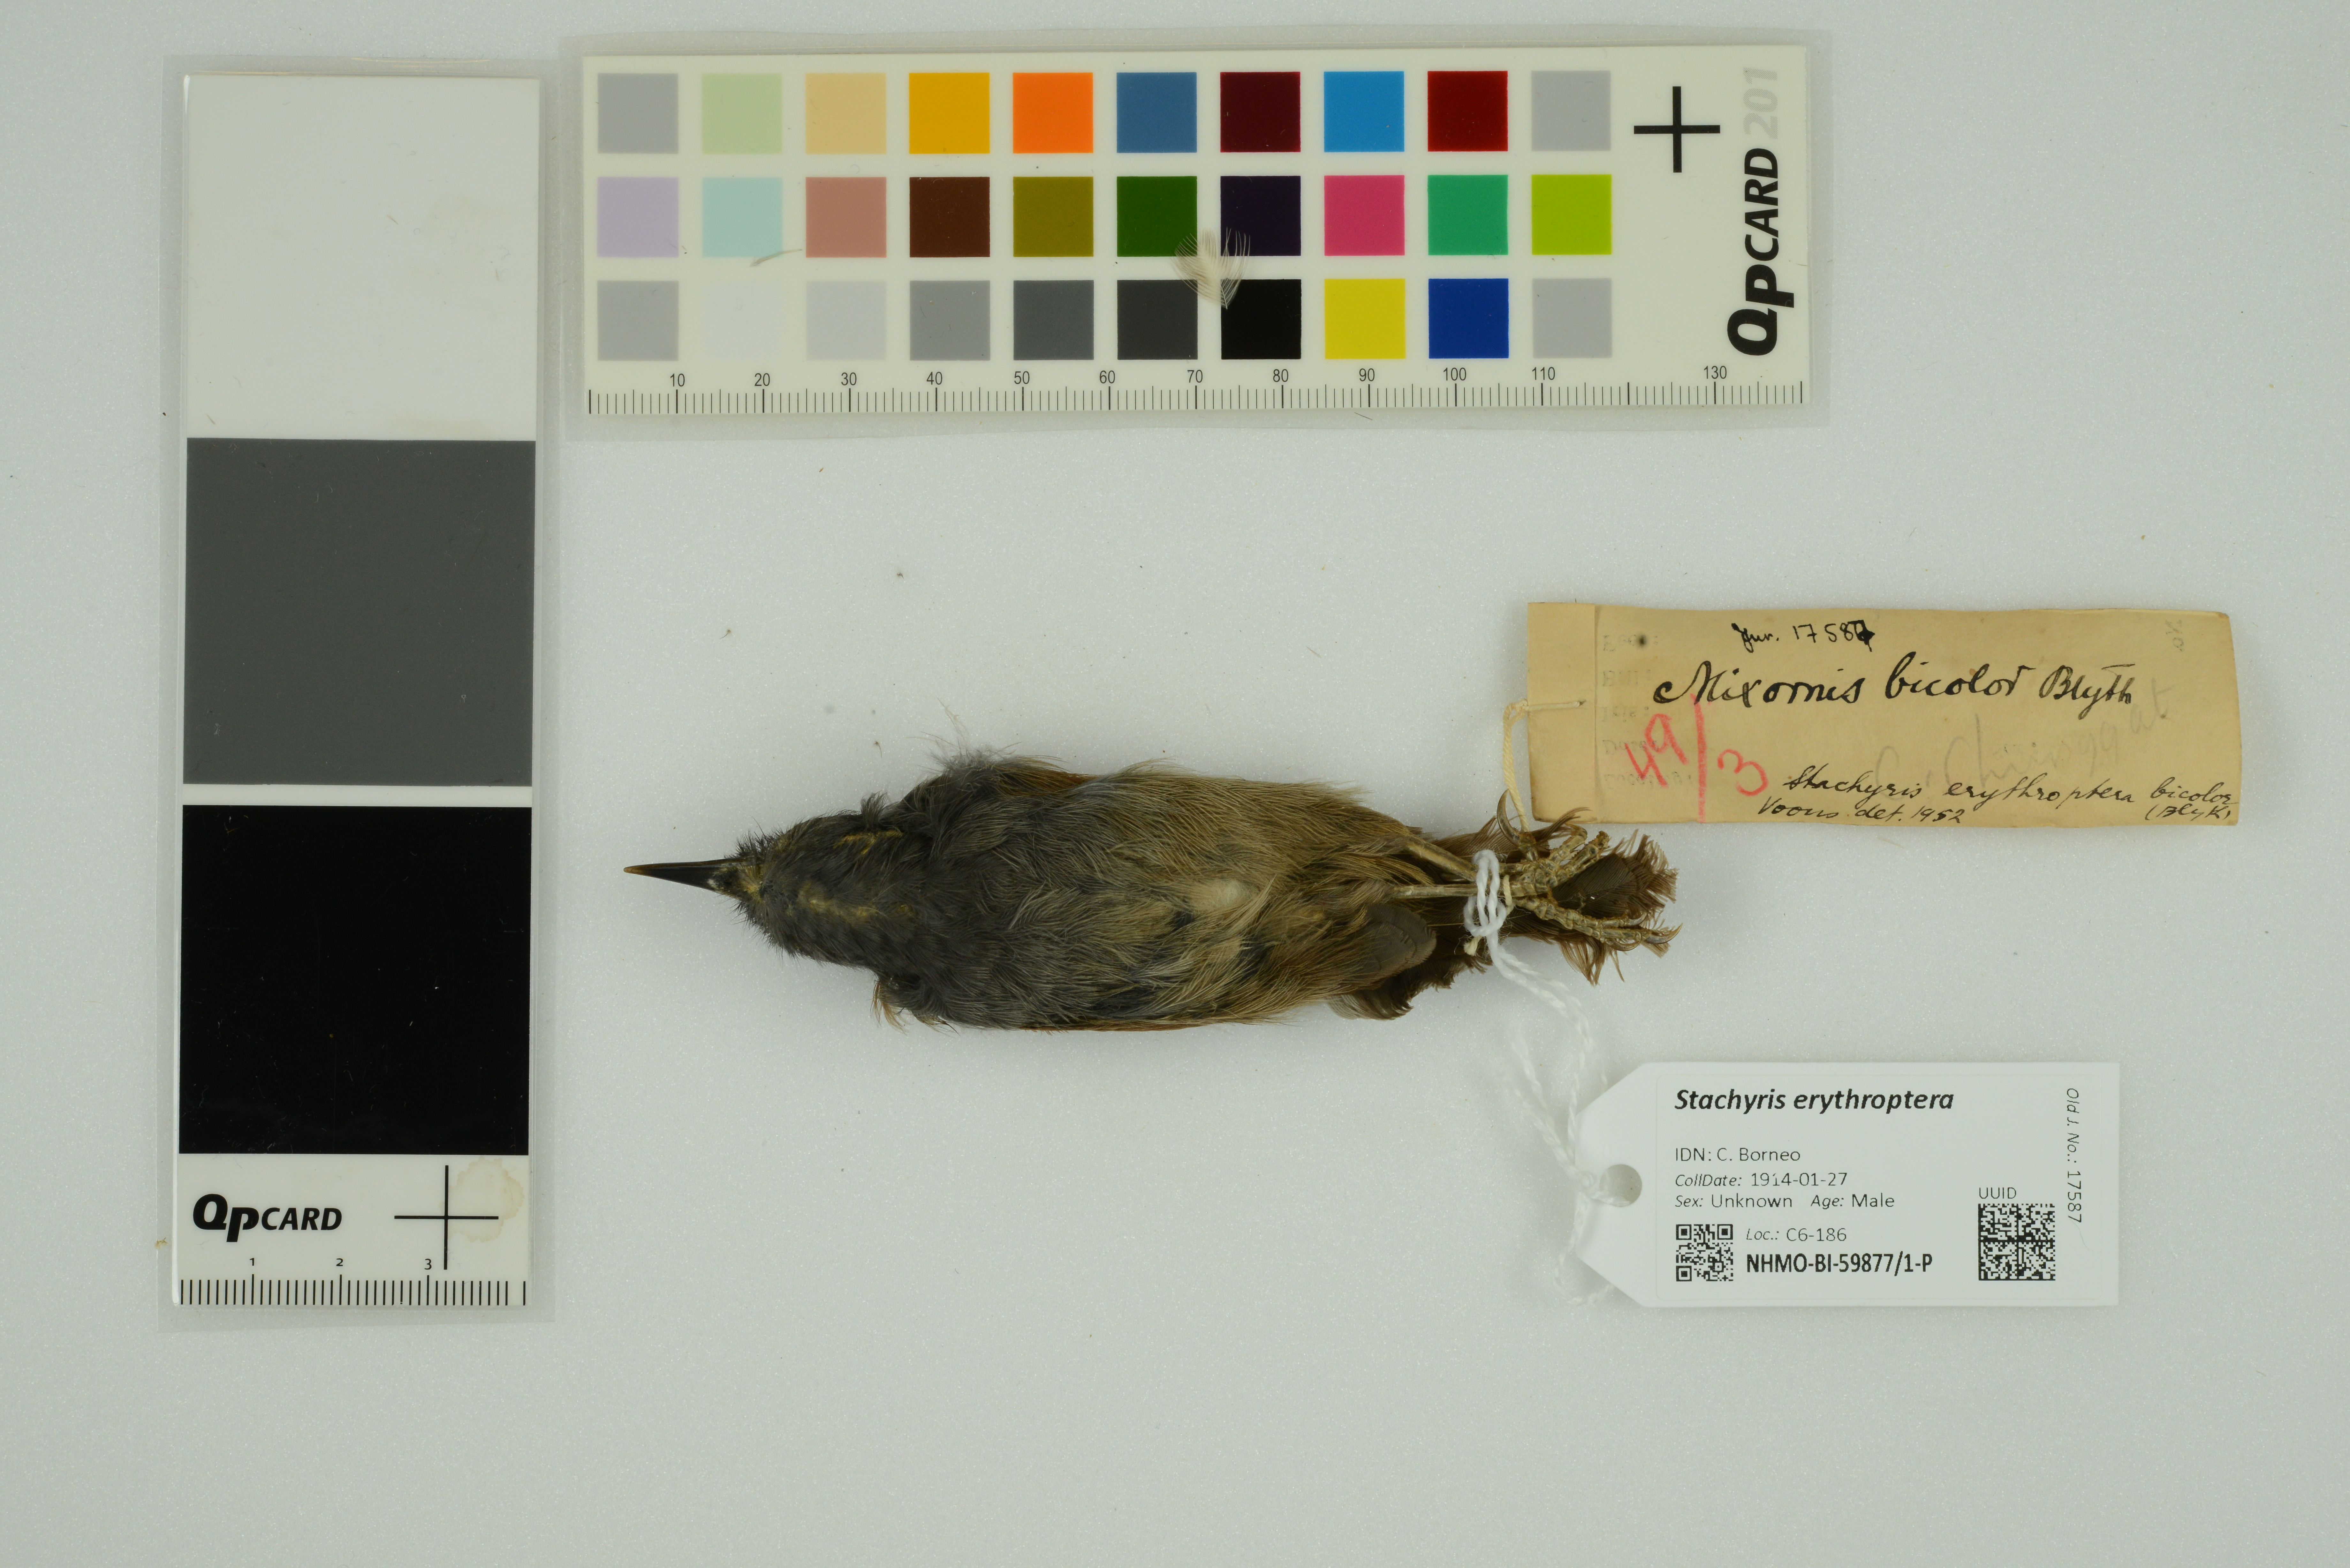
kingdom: Animalia
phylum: Chordata
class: Aves
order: Passeriformes
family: Timaliidae
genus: Stachyris
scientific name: Stachyris erythroptera
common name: Chestnut-winged babbler
